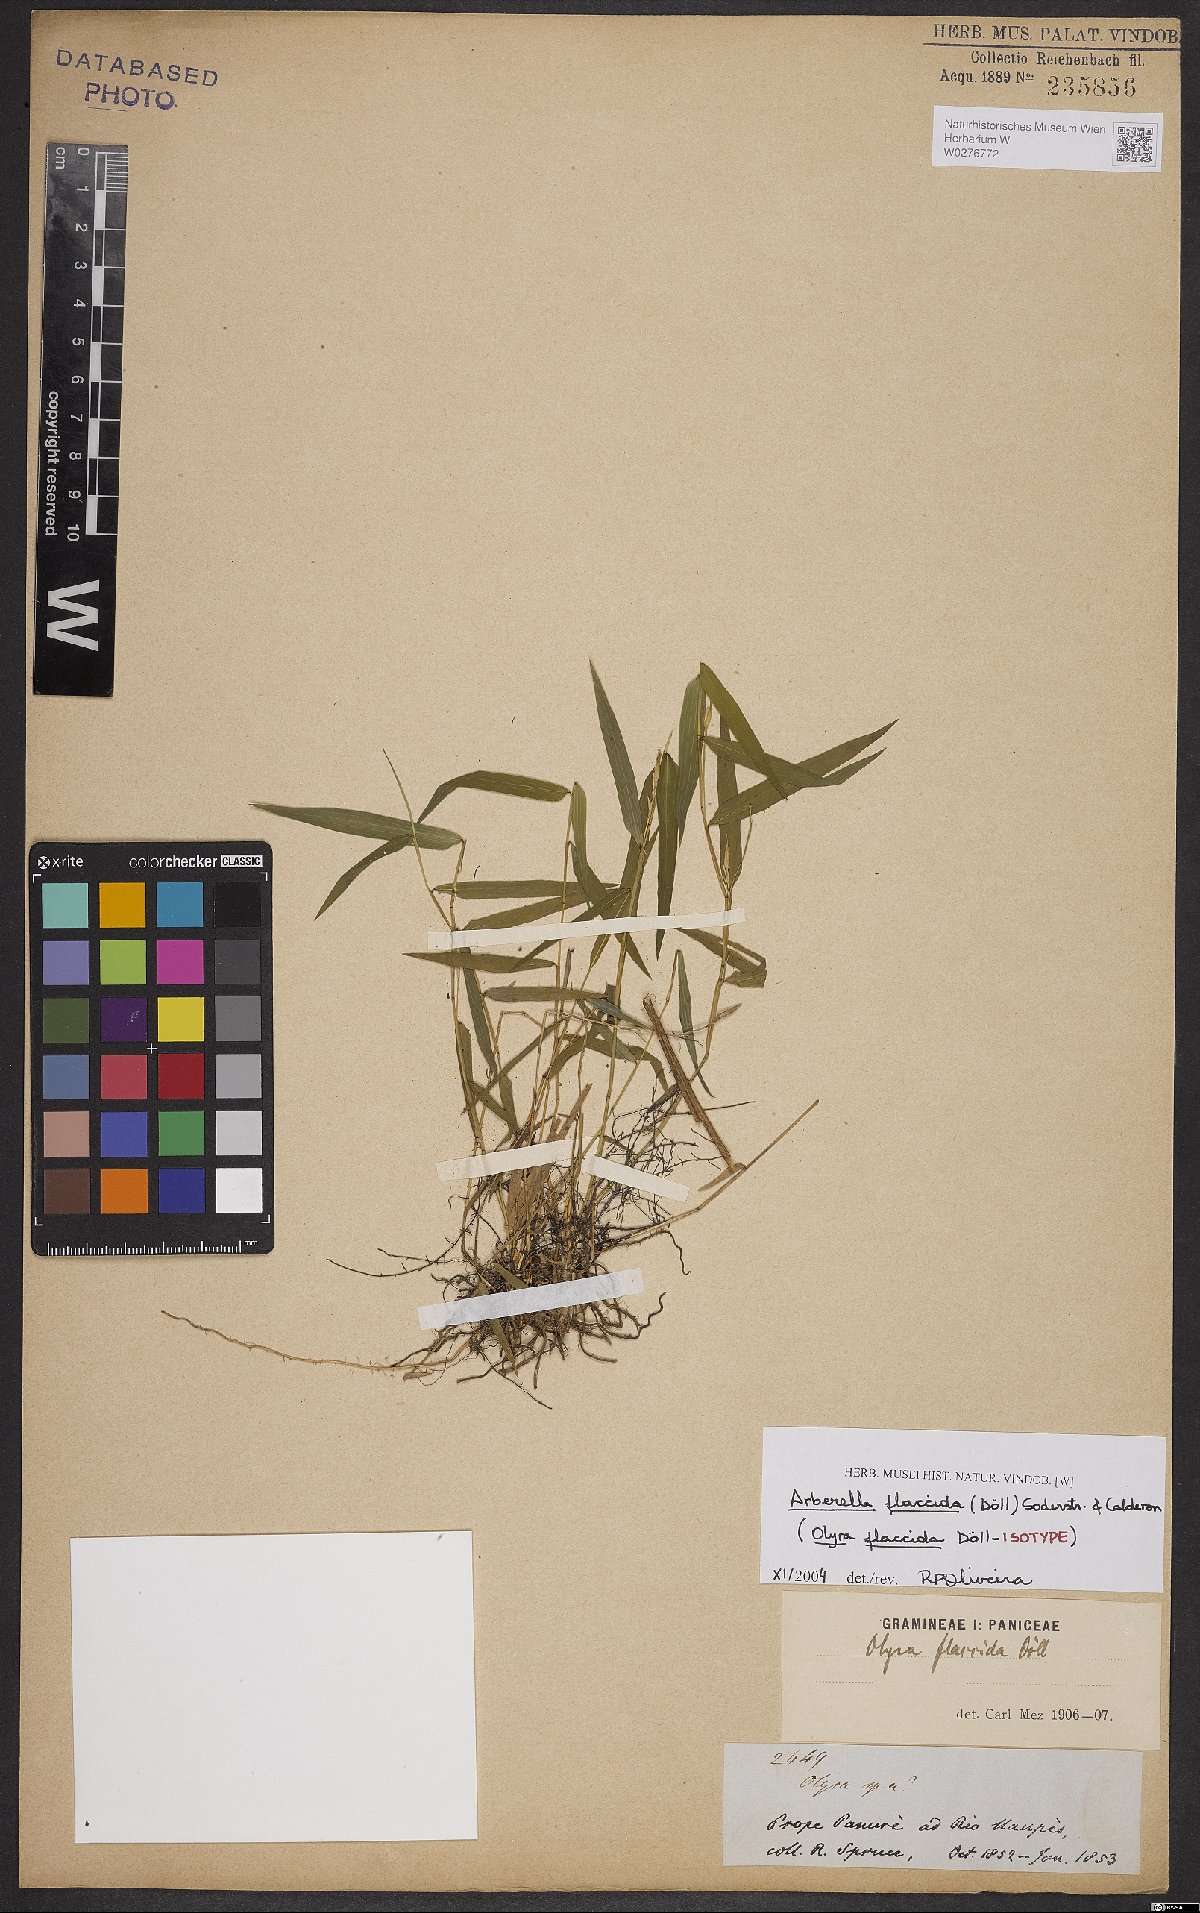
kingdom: Plantae
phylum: Tracheophyta
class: Liliopsida
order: Poales
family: Poaceae
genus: Arberella
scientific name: Arberella flaccida
